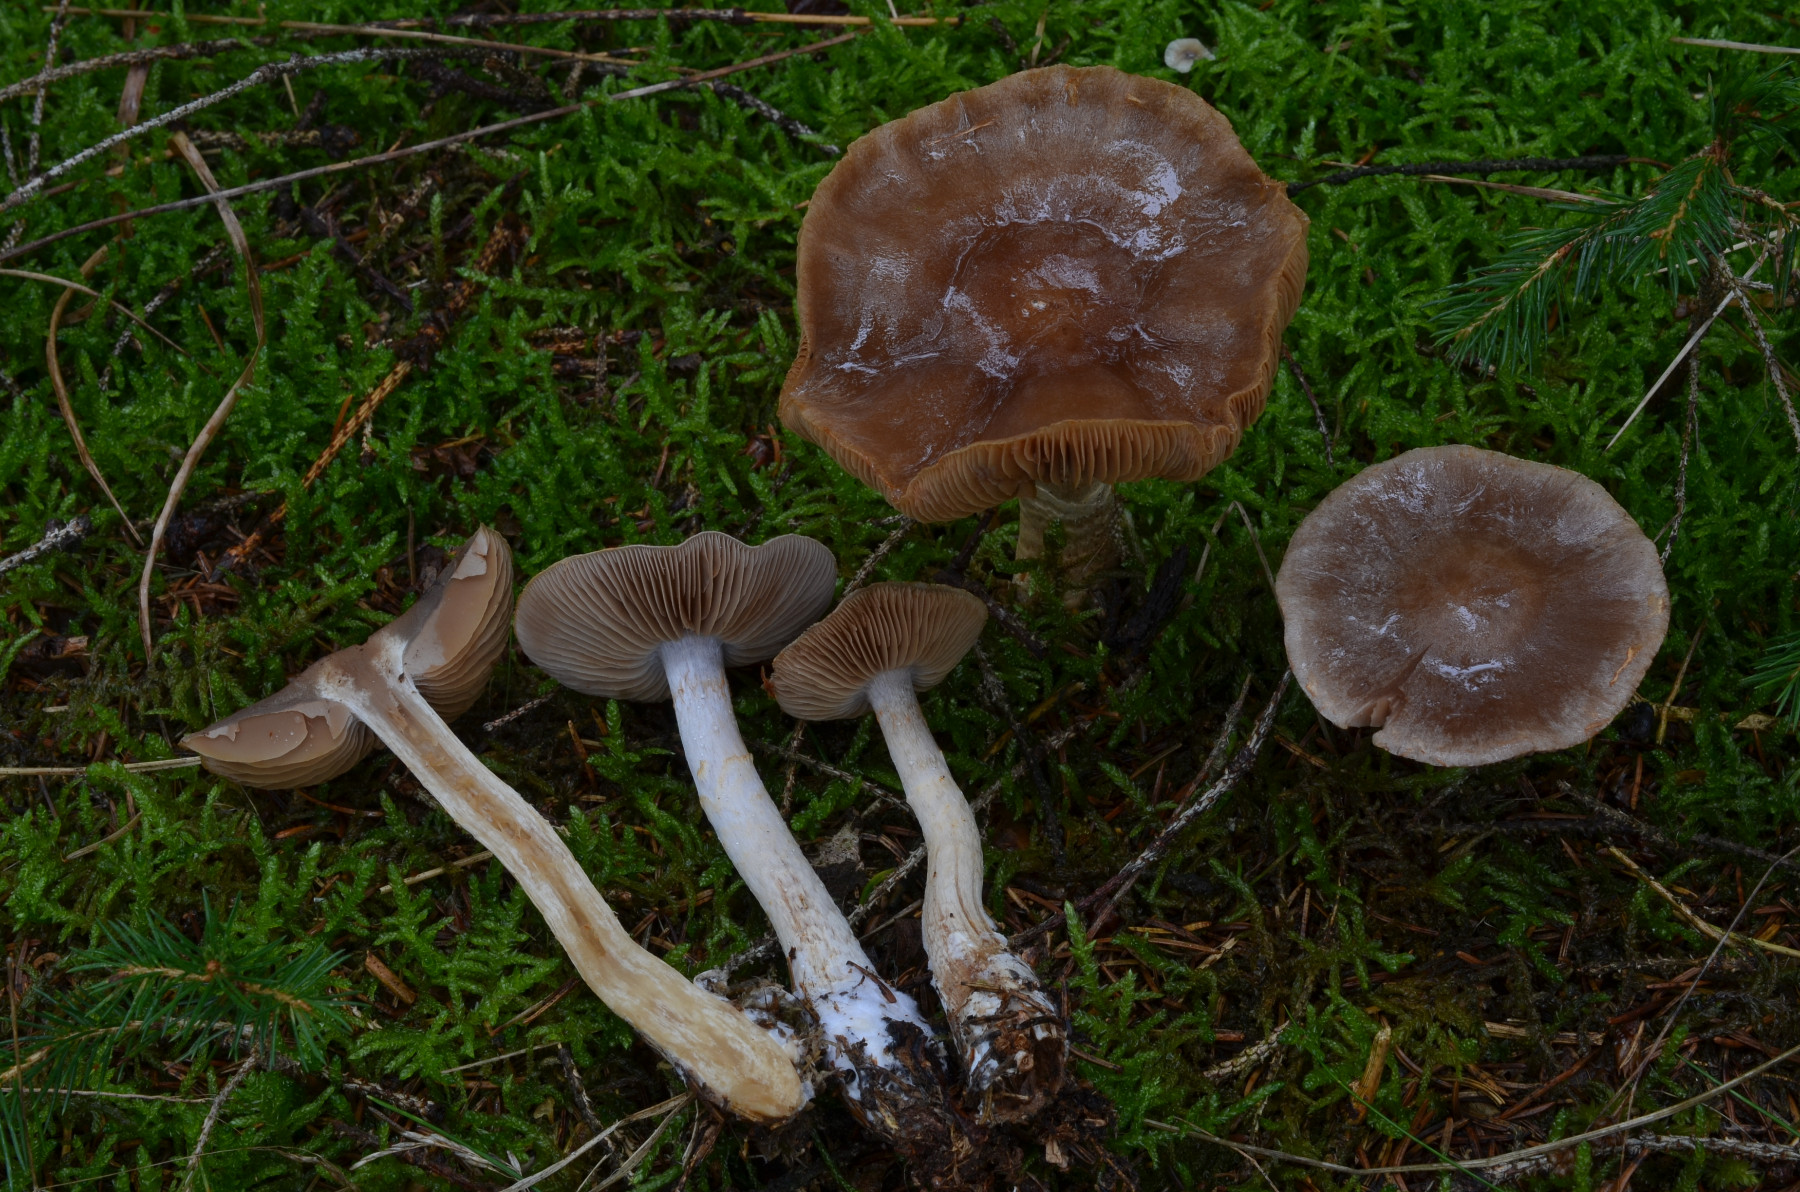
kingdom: Fungi
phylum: Basidiomycota
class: Agaricomycetes
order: Agaricales
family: Cortinariaceae
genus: Cortinarius
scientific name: Cortinarius anomalus
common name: Variable webcap
